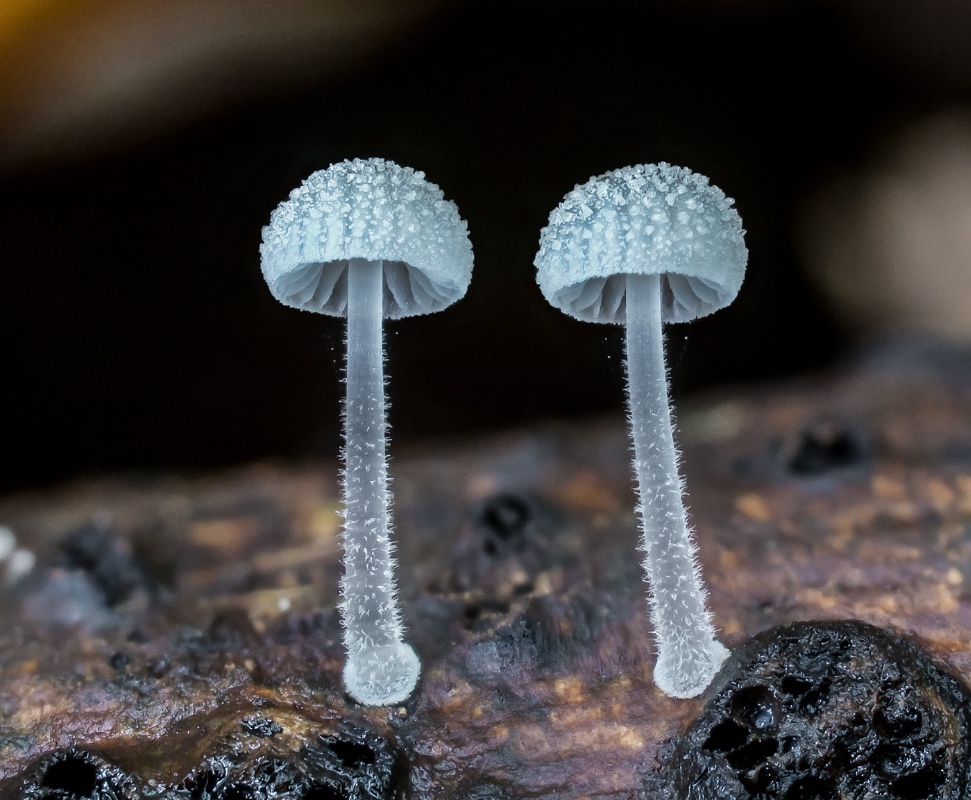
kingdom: Fungi
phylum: Basidiomycota
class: Agaricomycetes
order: Agaricales
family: Mycenaceae
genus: Mycena
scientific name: Mycena tenerrima
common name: pudret huesvamp
